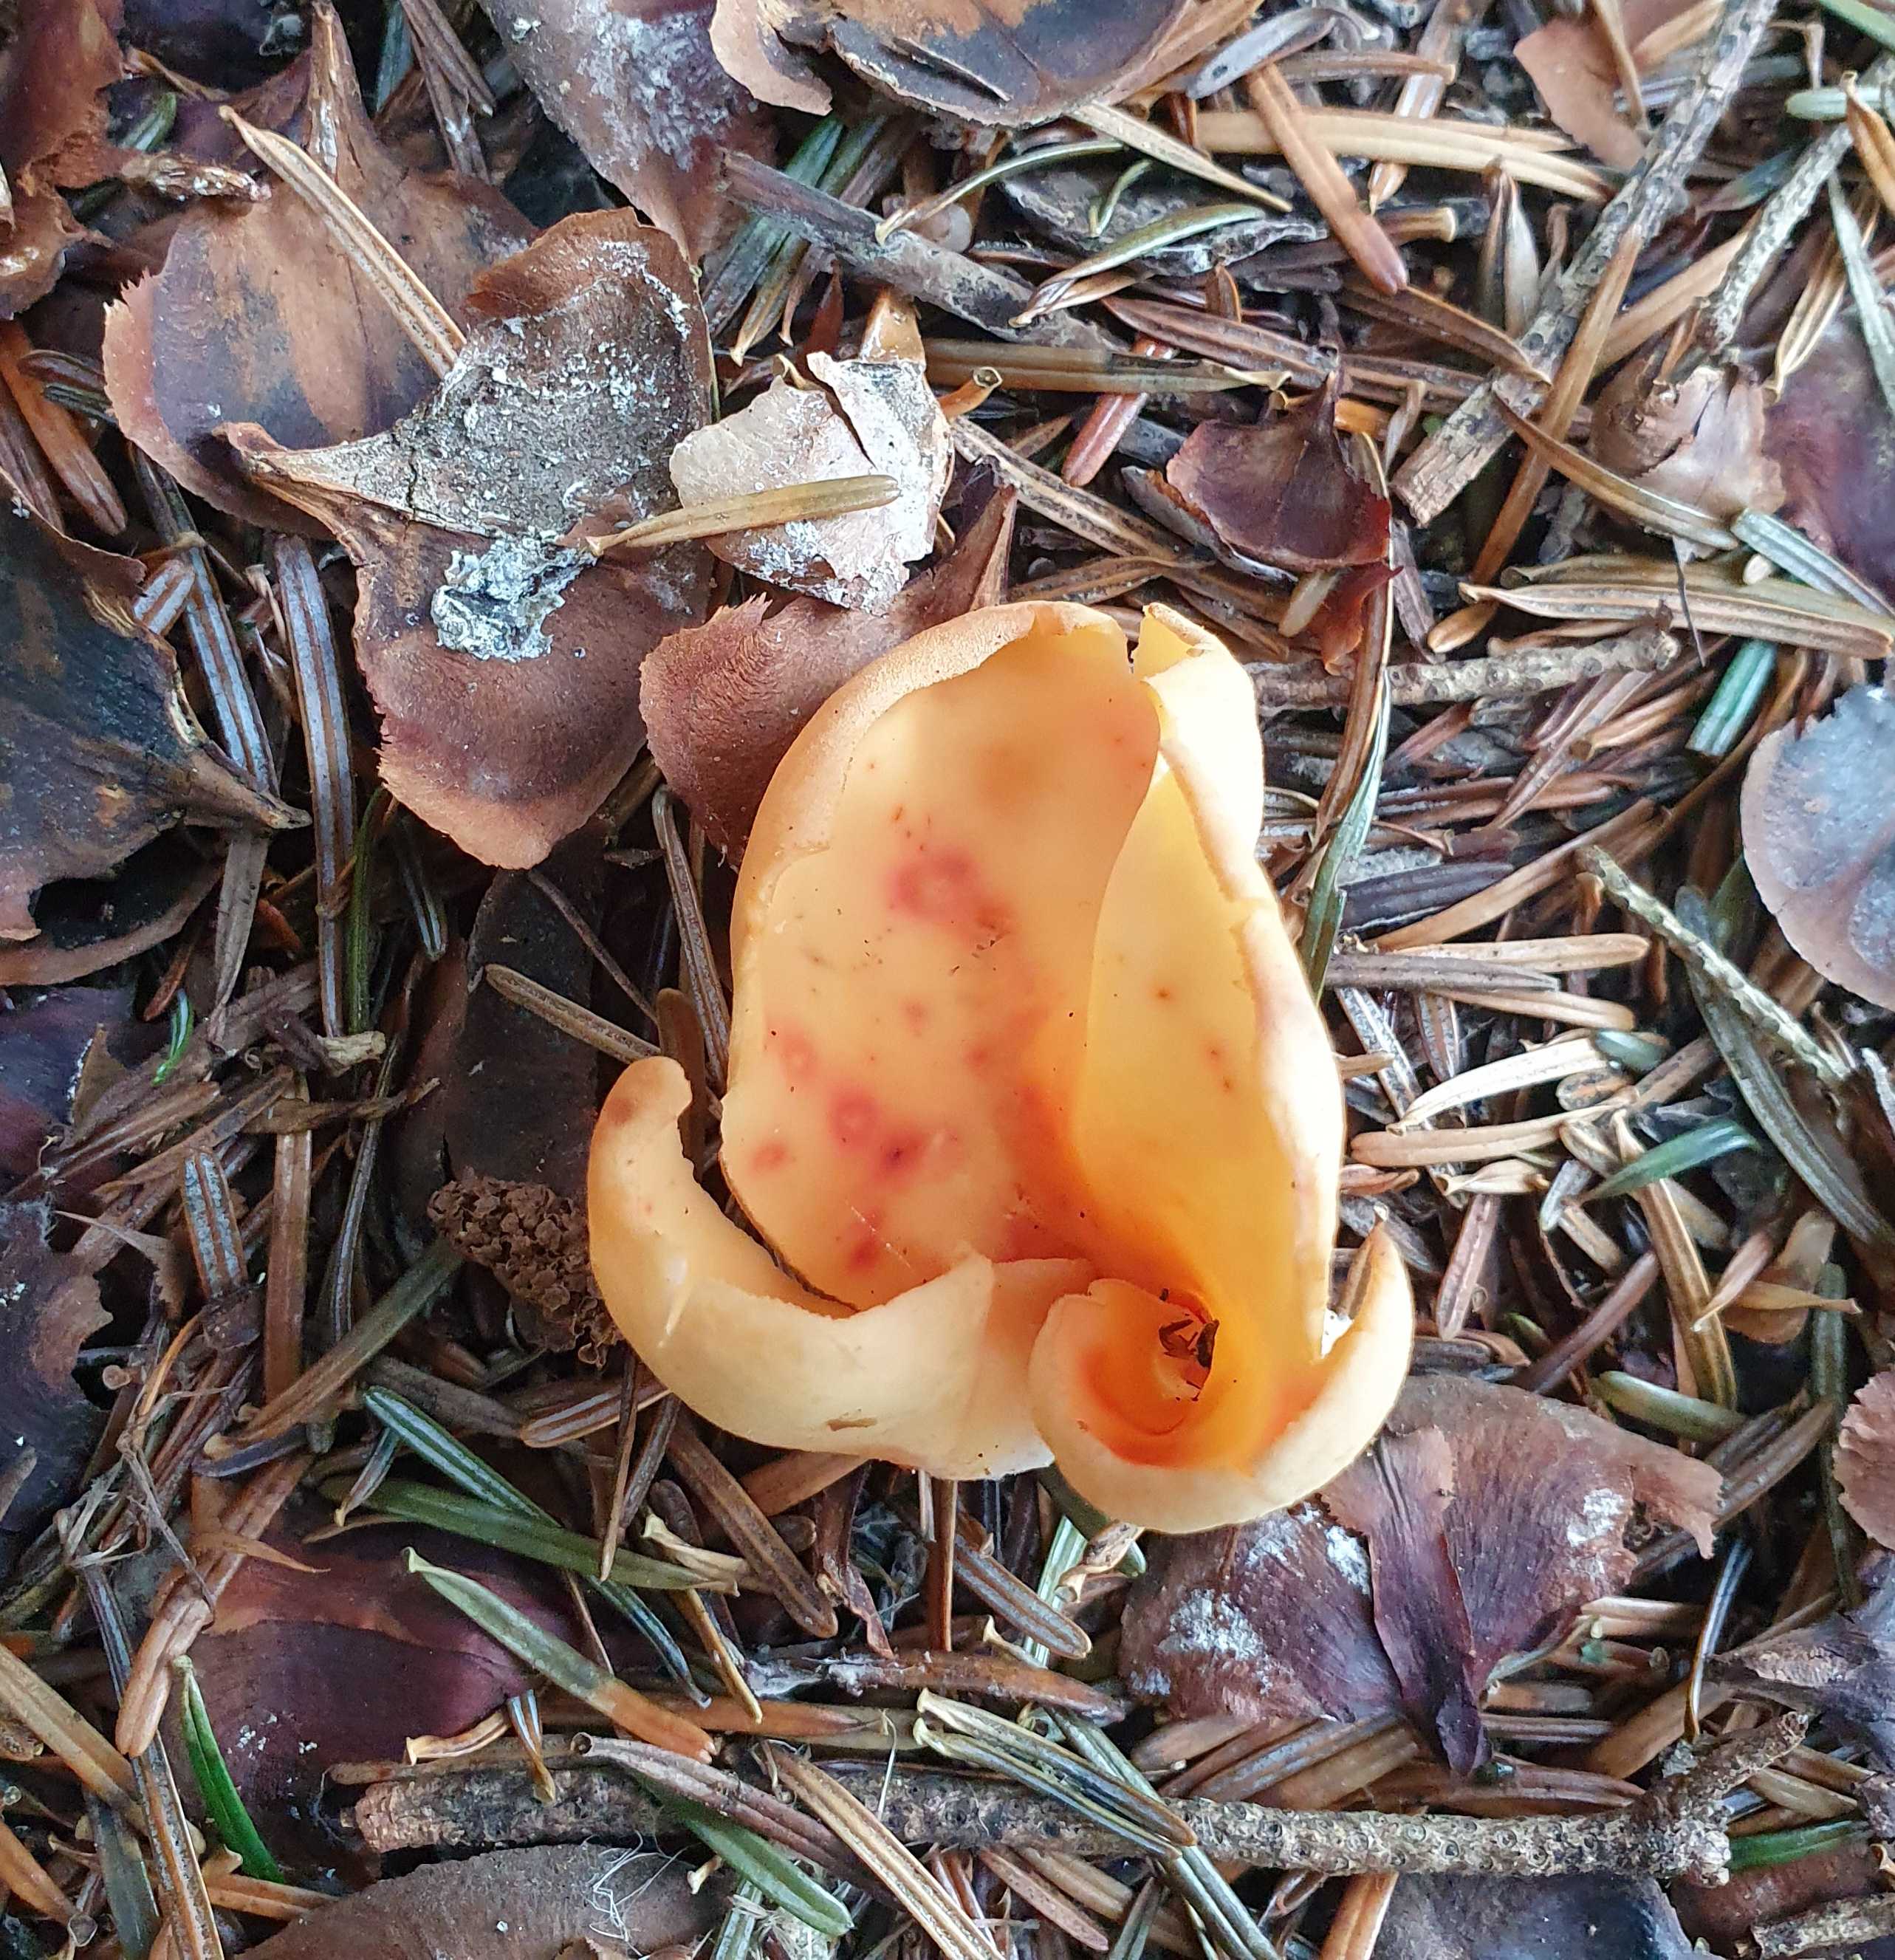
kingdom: Fungi
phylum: Ascomycota
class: Pezizomycetes
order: Pezizales
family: Otideaceae
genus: Otidea
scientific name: Otidea onotica
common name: æsel-ørebæger
